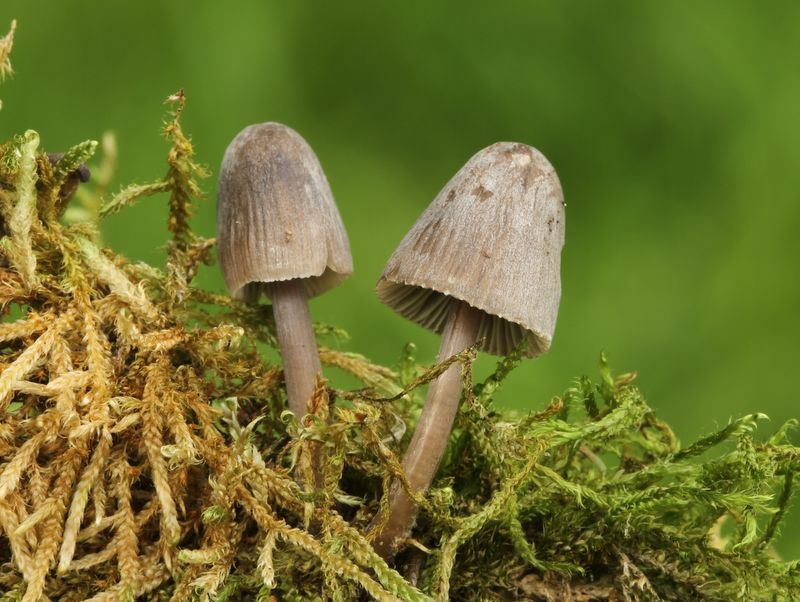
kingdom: Fungi
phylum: Basidiomycota
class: Agaricomycetes
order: Agaricales
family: Mycenaceae
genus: Mycena
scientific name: Mycena abramsii
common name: sommer-huesvamp
